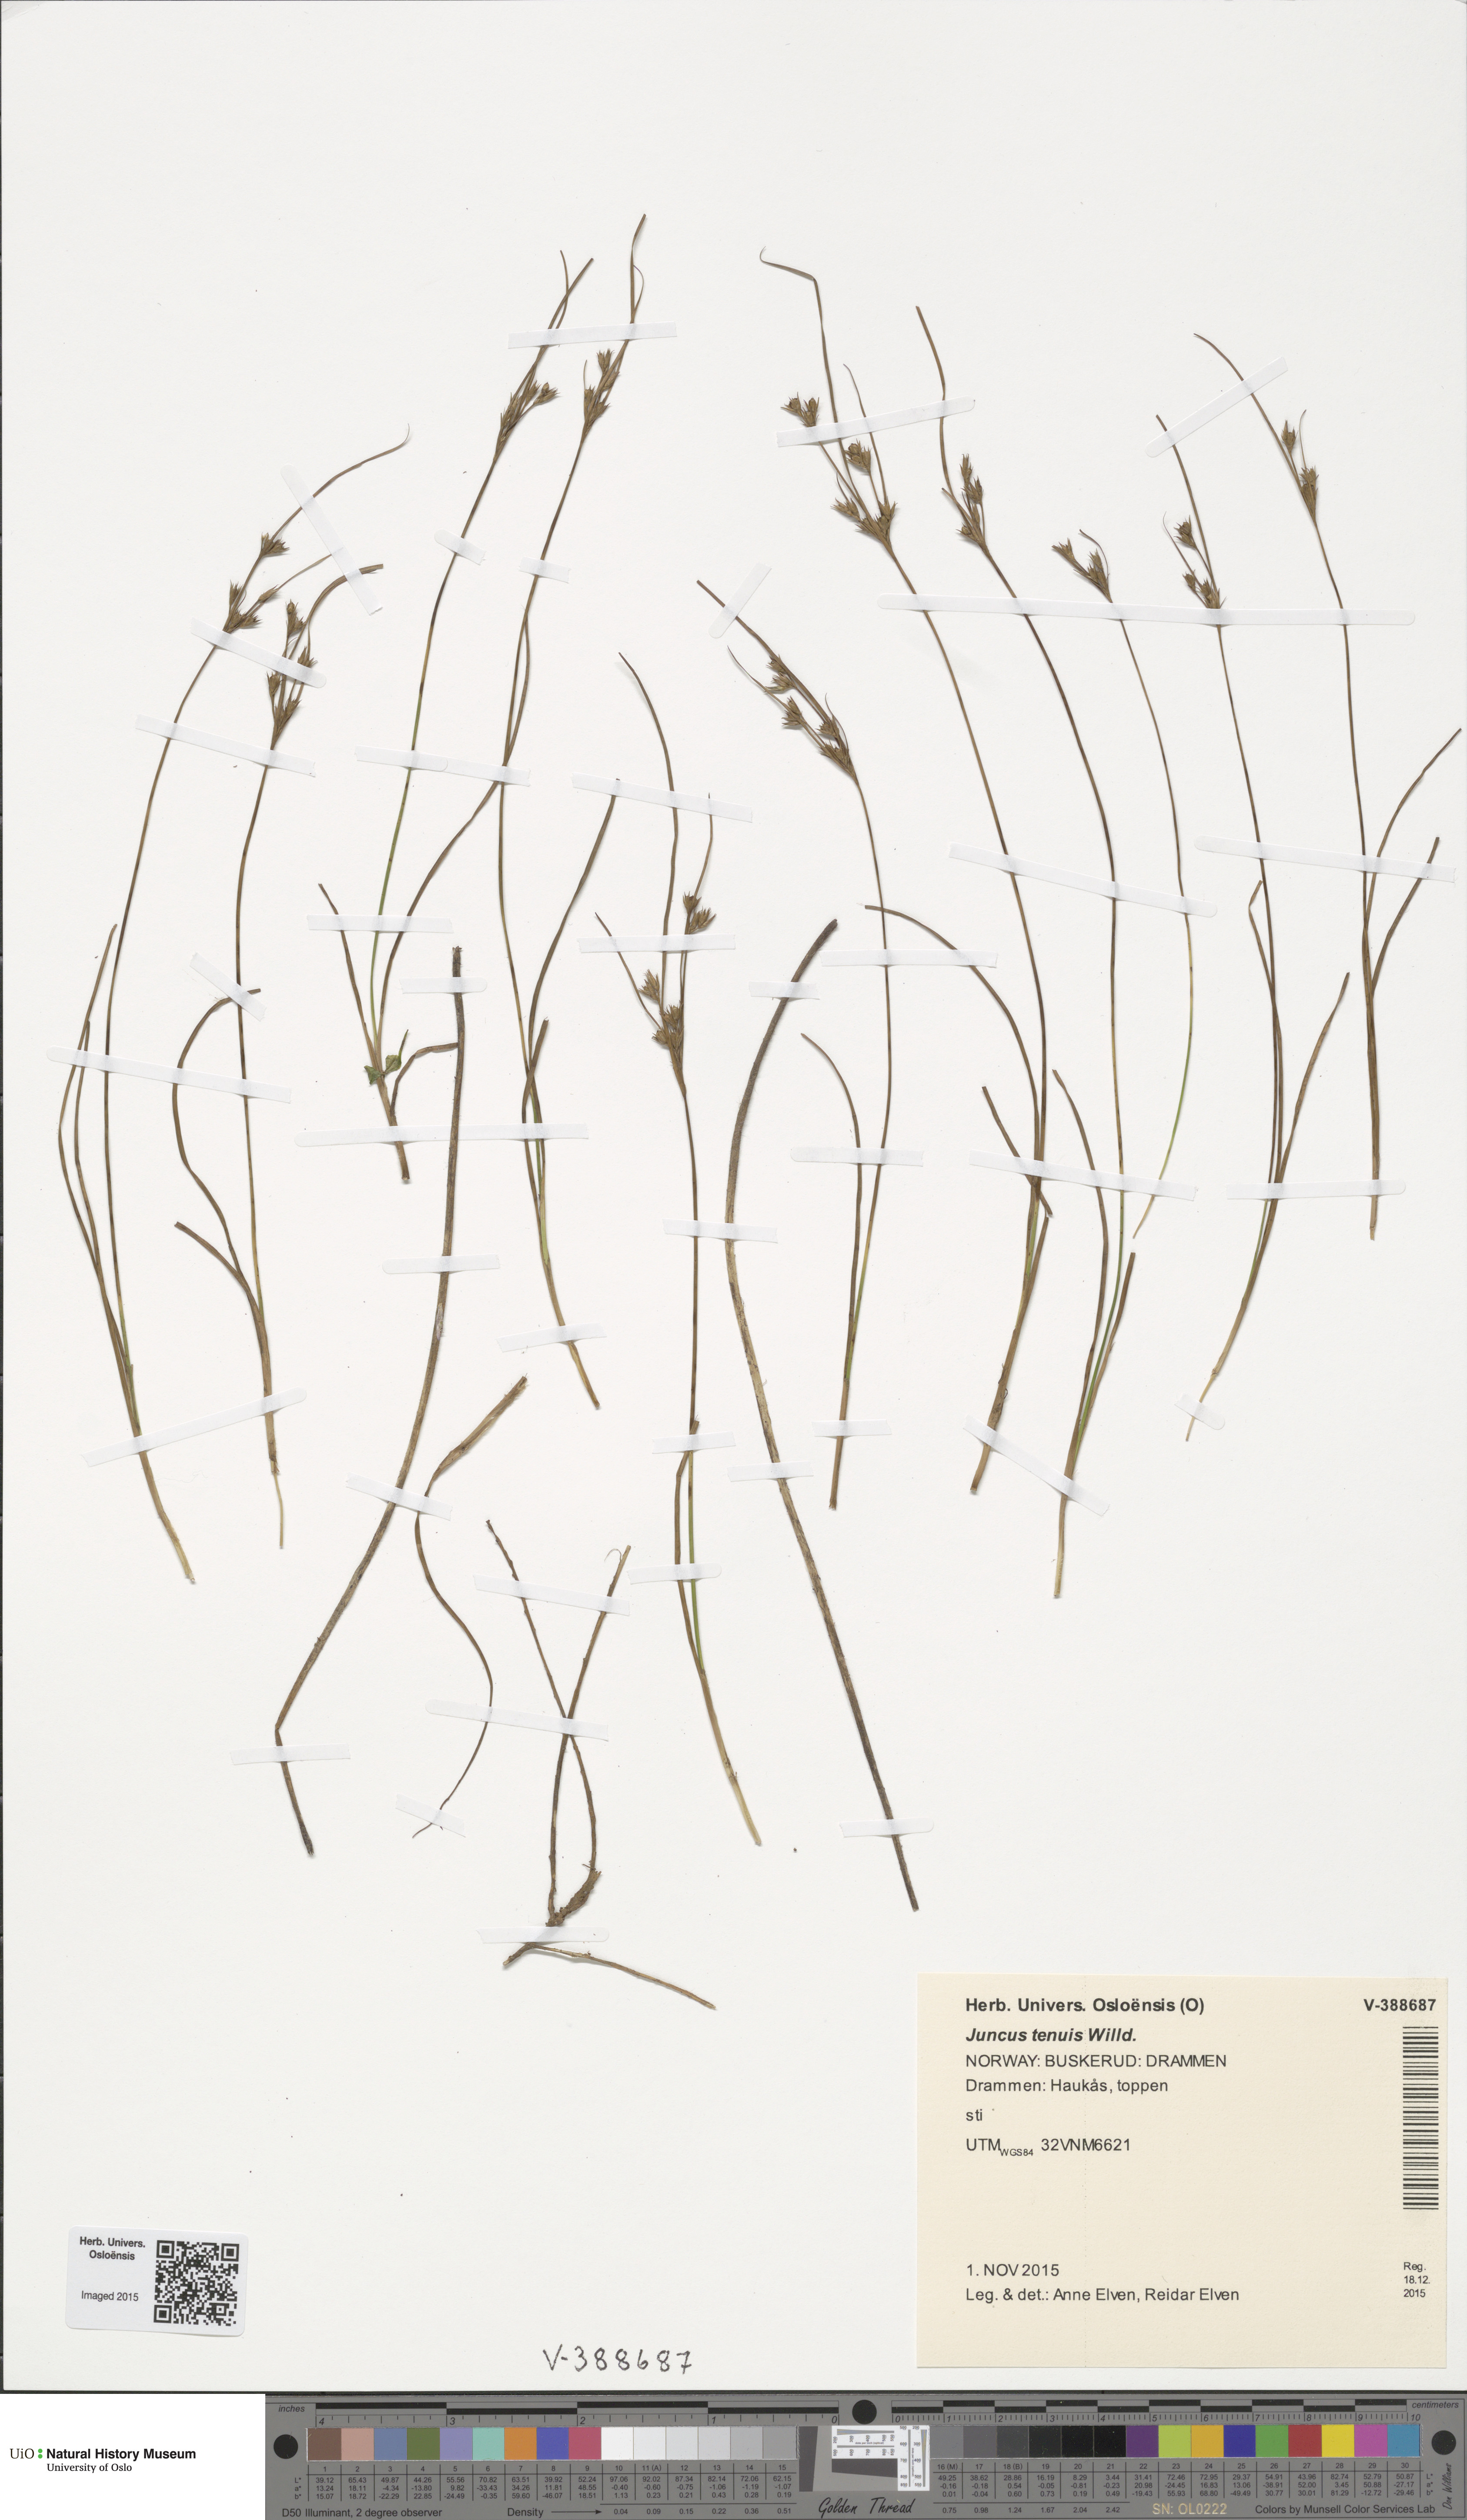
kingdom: Plantae
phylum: Tracheophyta
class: Liliopsida
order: Poales
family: Juncaceae
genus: Juncus
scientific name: Juncus tenuis
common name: Slender rush
